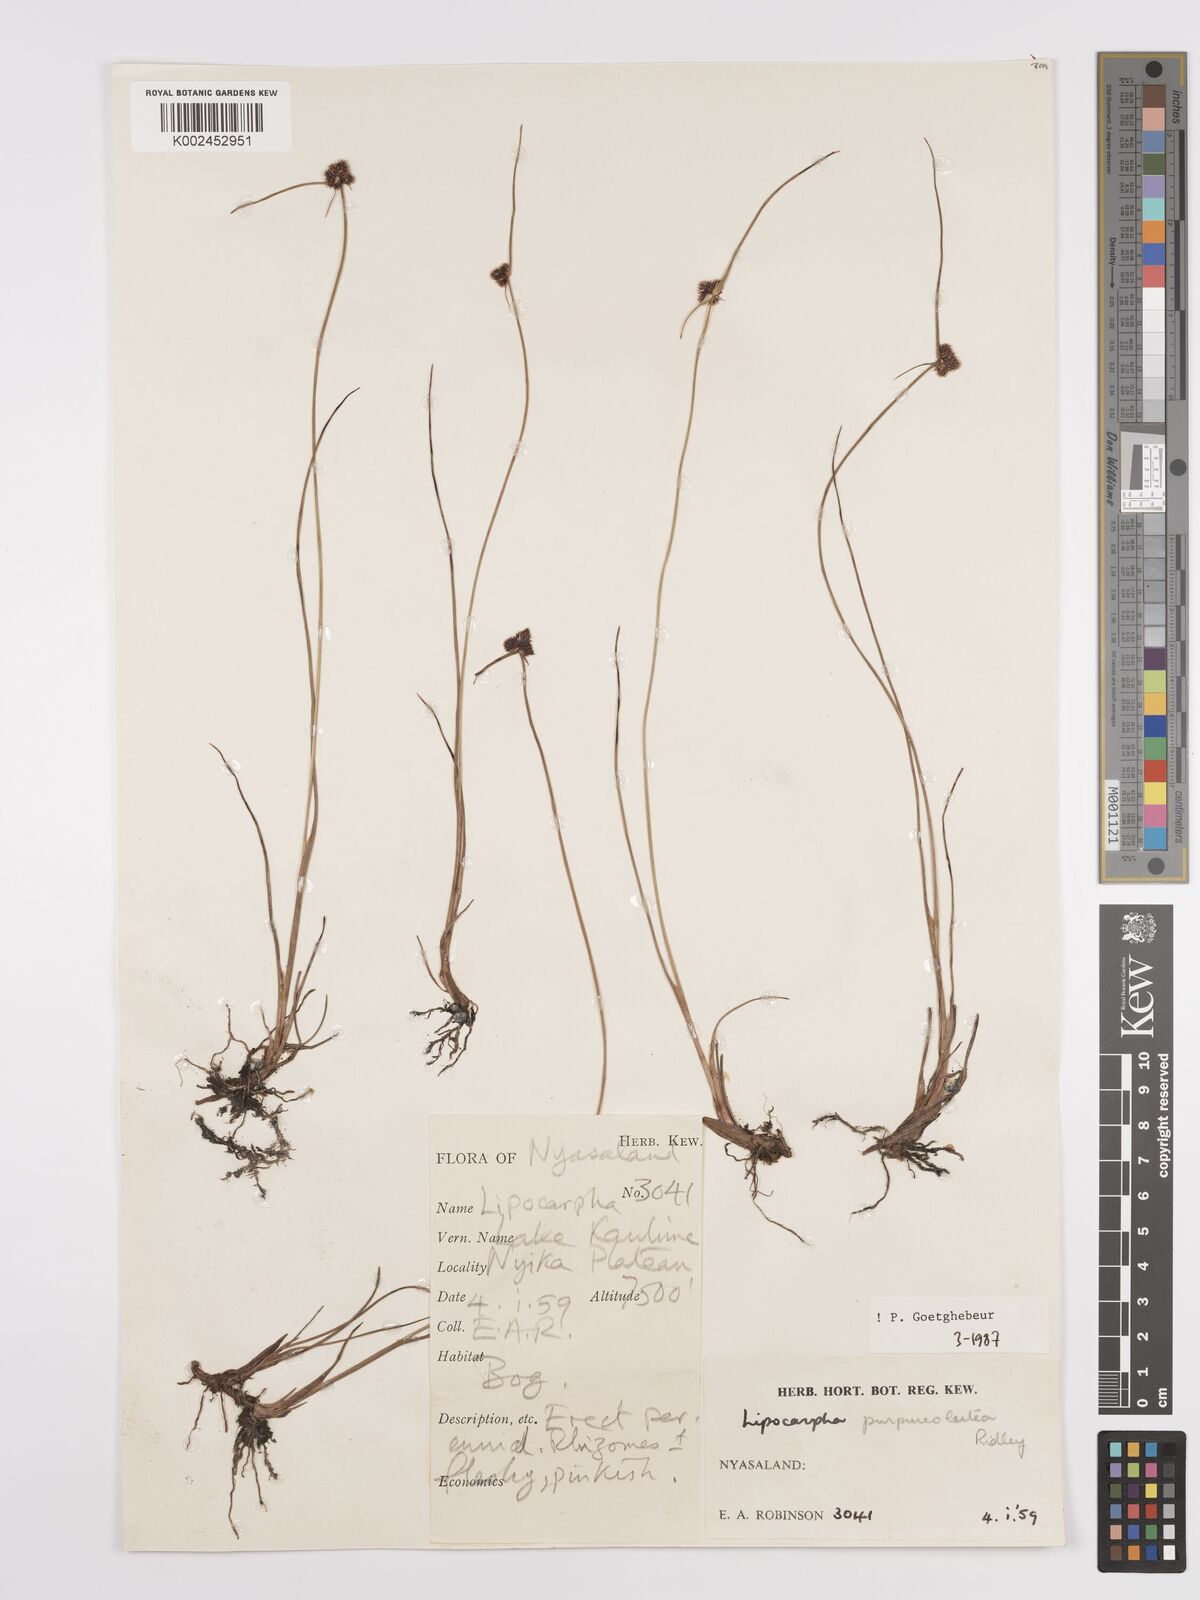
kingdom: Plantae
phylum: Tracheophyta
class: Liliopsida
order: Poales
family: Cyperaceae
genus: Cyperus
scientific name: Cyperus albiceps
